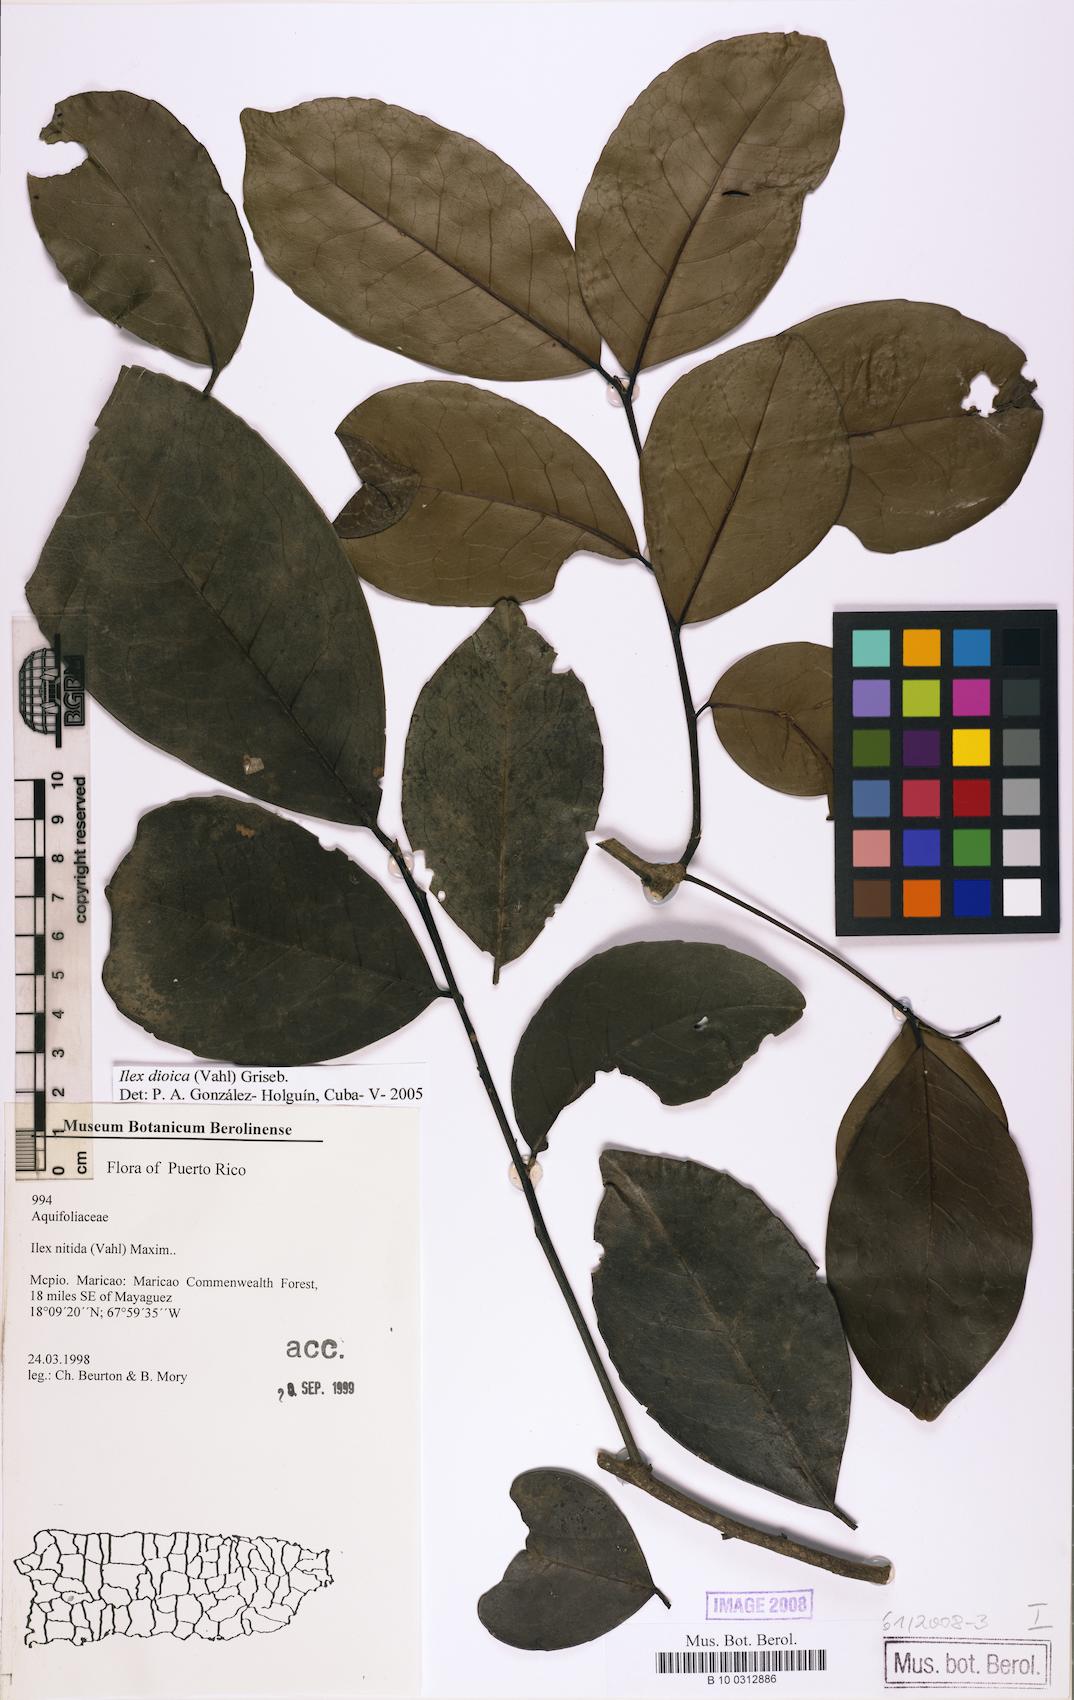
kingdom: Plantae
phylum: Tracheophyta
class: Magnoliopsida
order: Aquifoliales
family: Aquifoliaceae
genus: Ilex
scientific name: Ilex dioica
